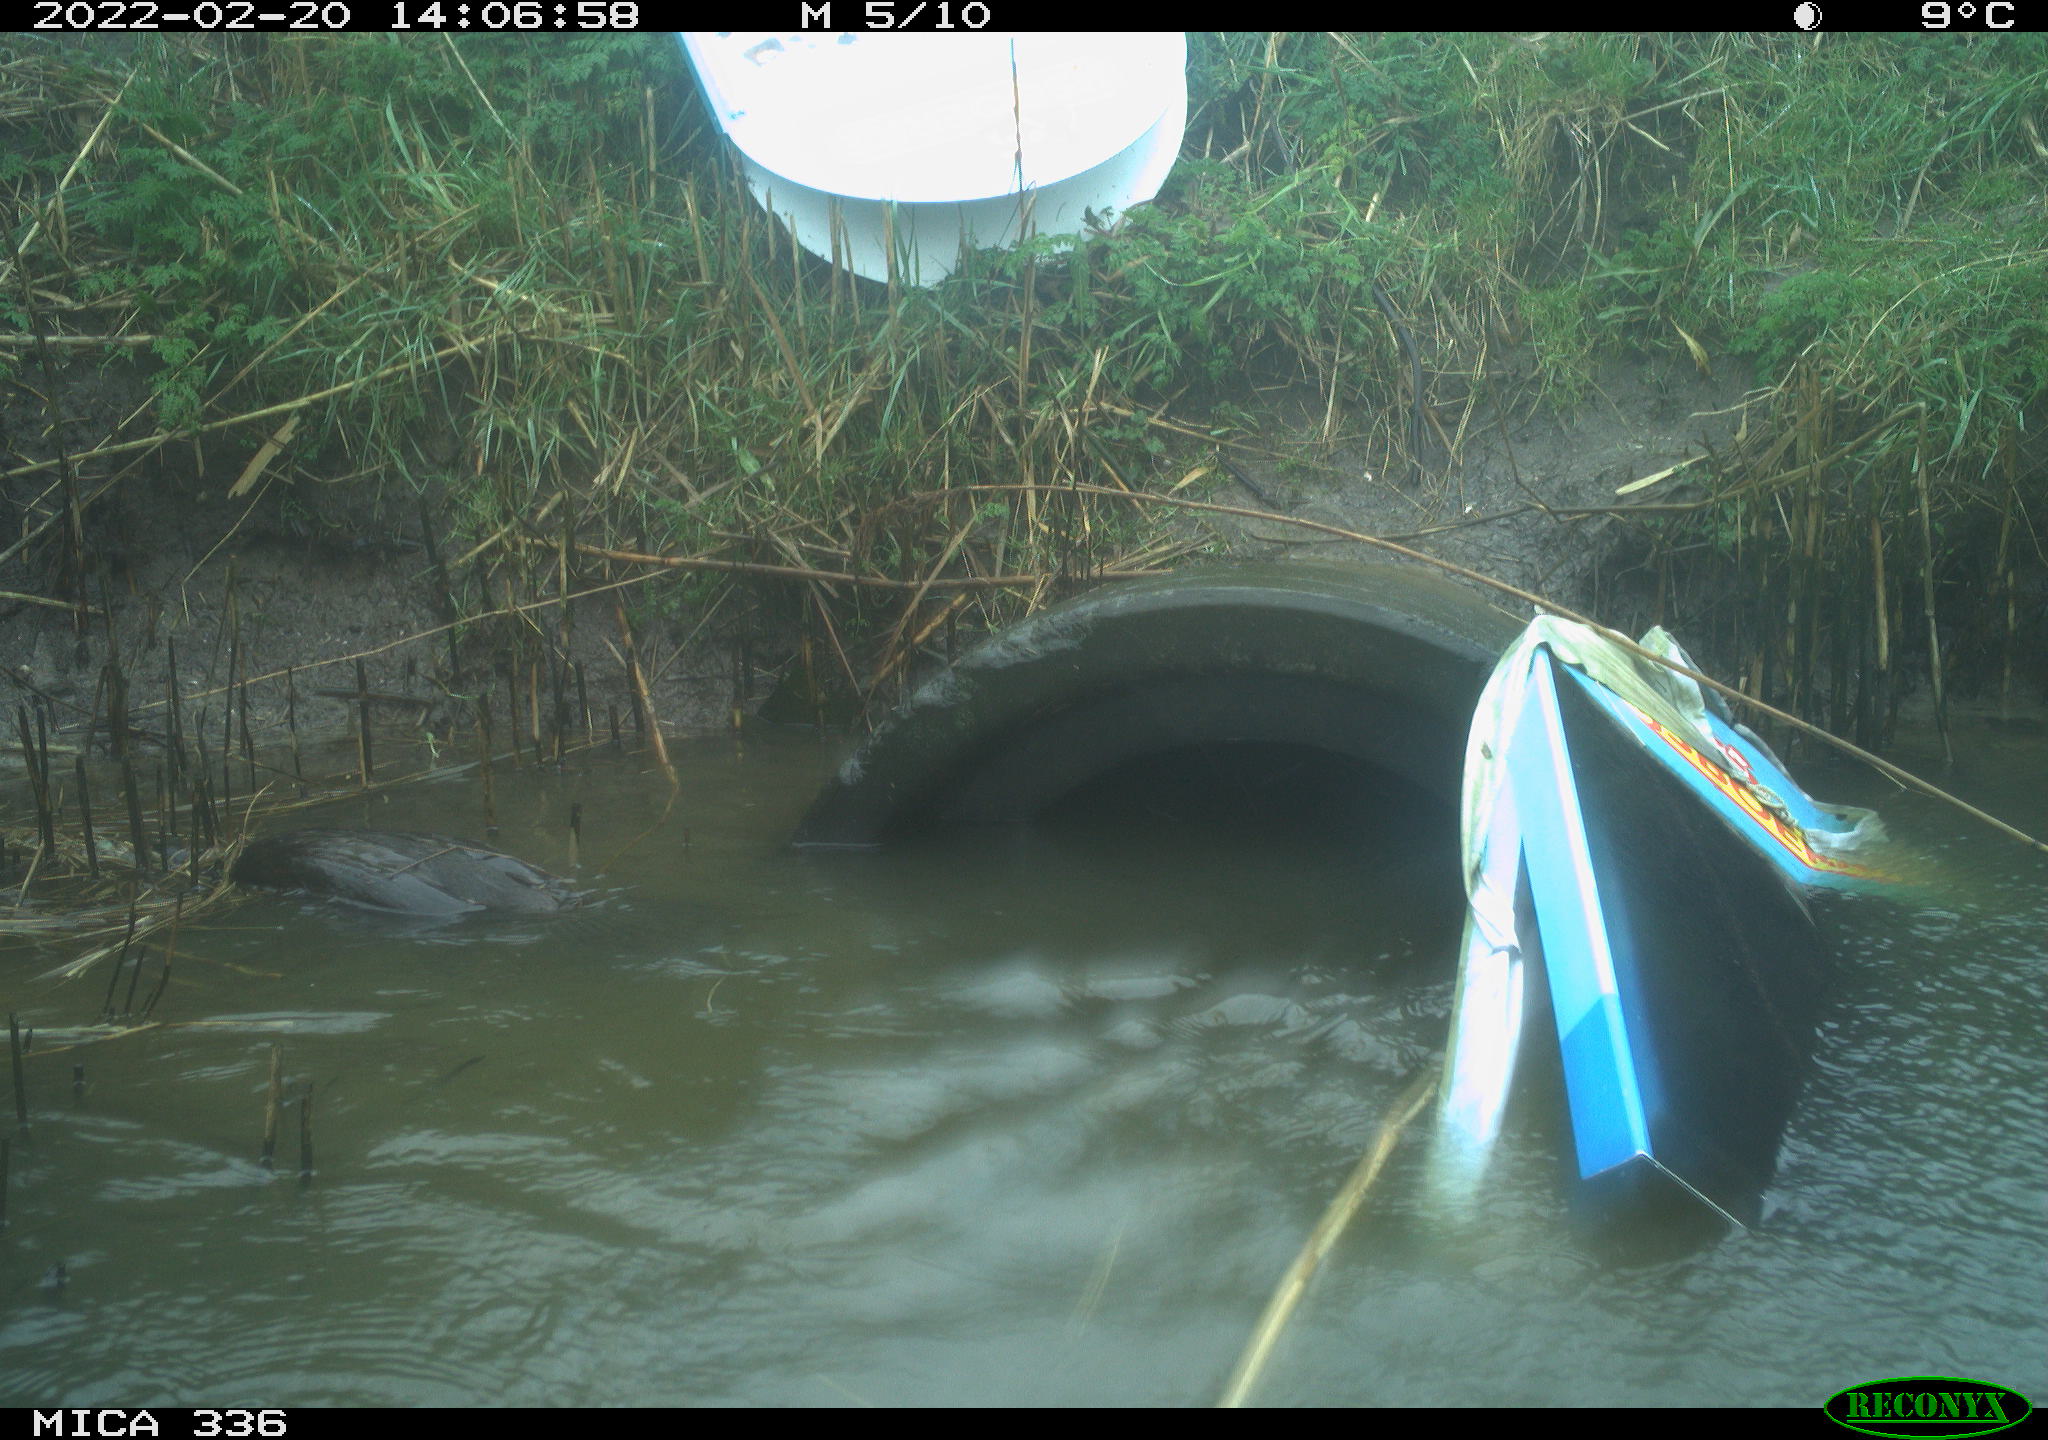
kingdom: Animalia
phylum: Chordata
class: Aves
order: Suliformes
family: Phalacrocoracidae
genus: Phalacrocorax
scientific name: Phalacrocorax carbo
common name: Great cormorant
